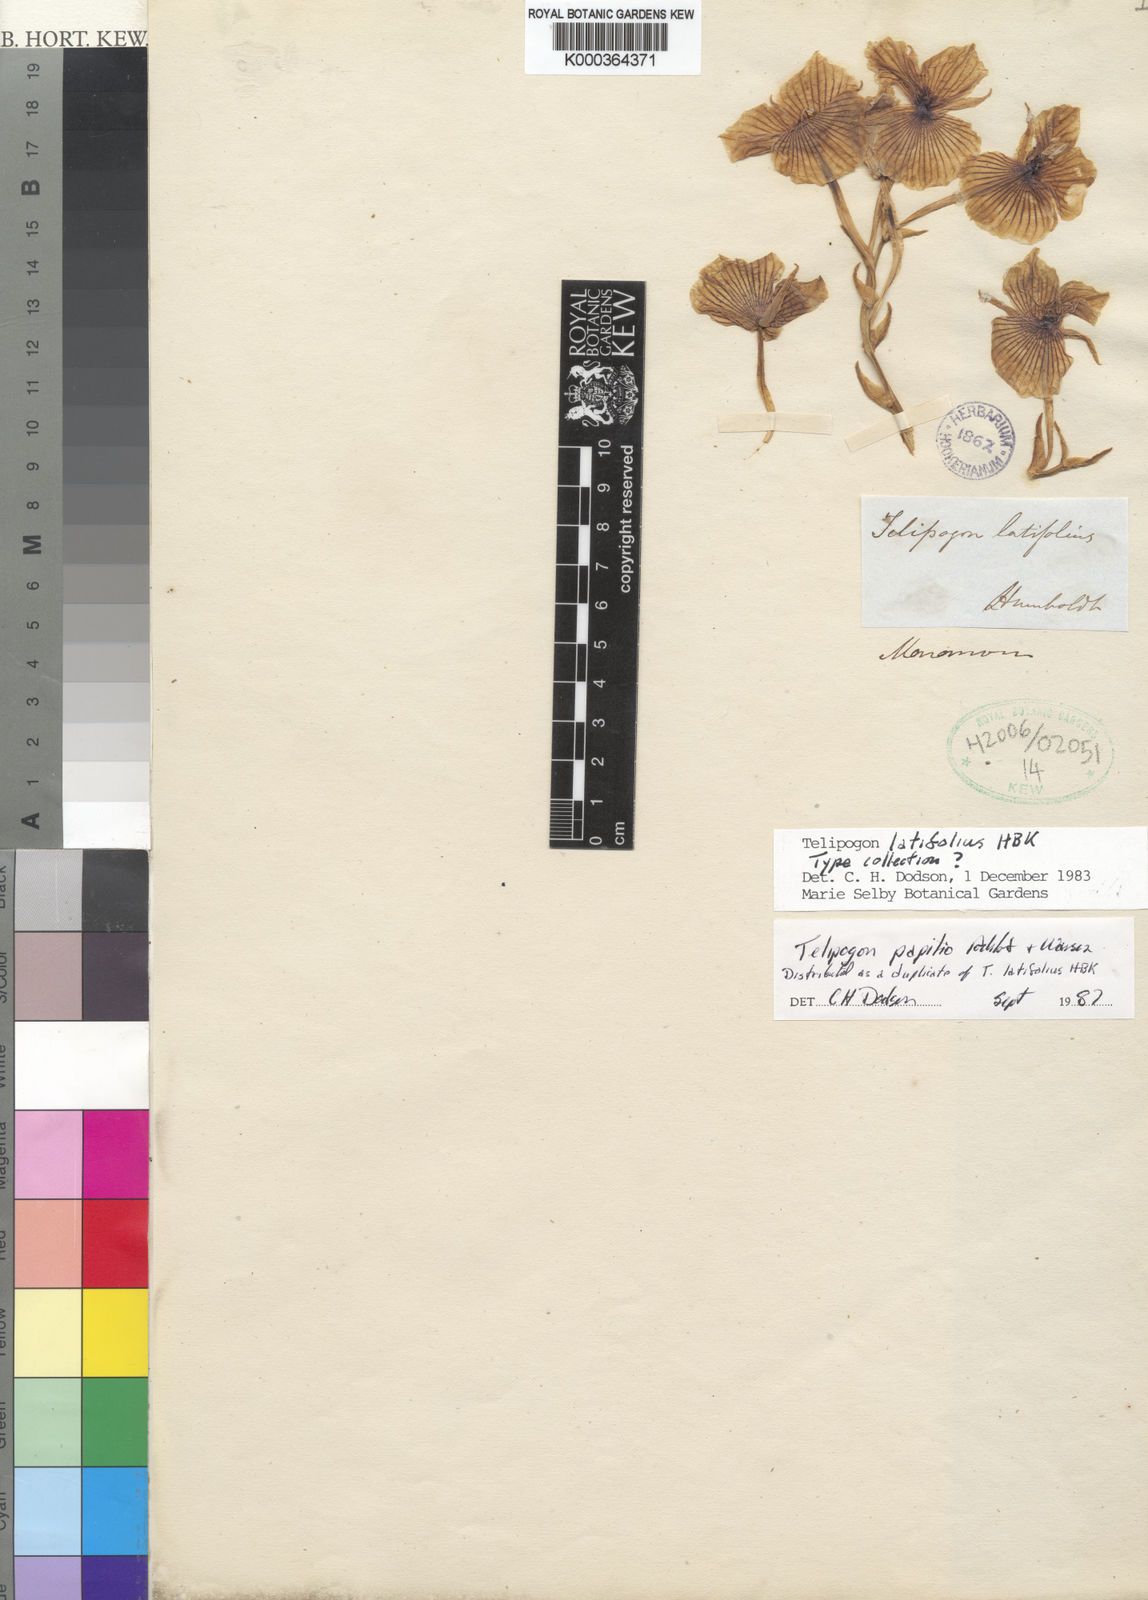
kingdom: Plantae
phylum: Tracheophyta
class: Liliopsida
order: Asparagales
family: Orchidaceae
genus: Telipogon
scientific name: Telipogon papilio
